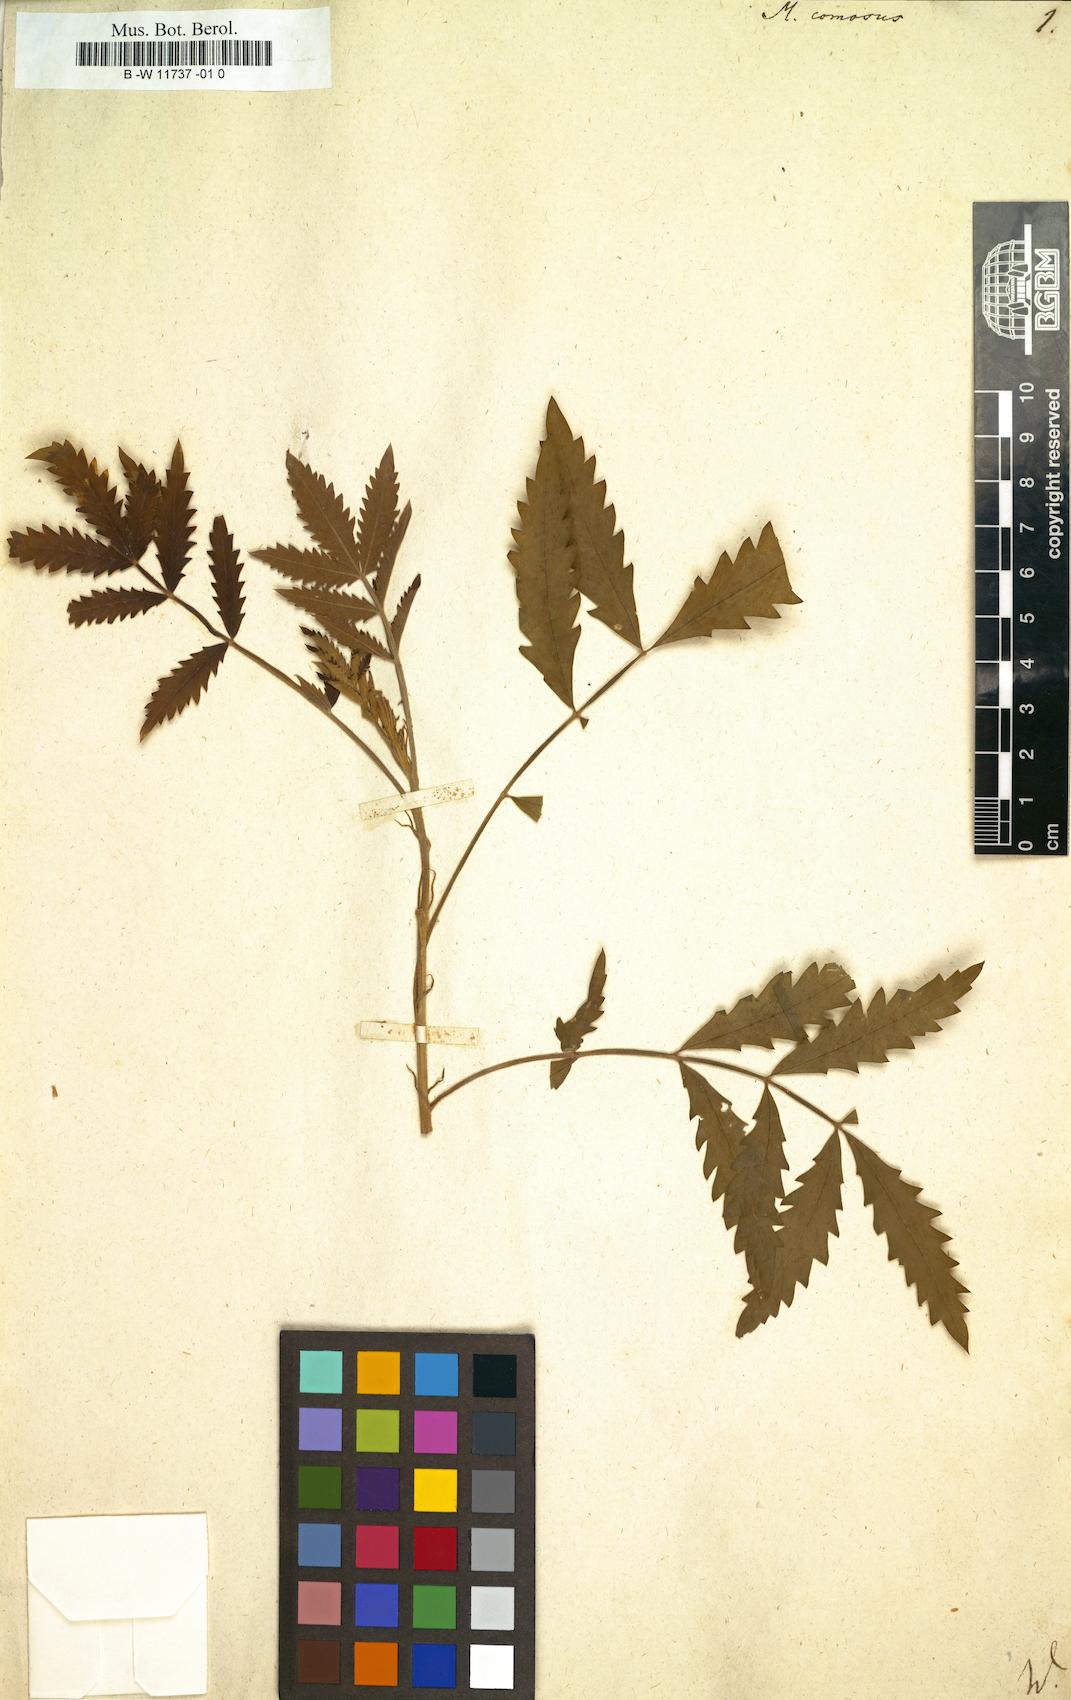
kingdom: Plantae
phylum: Tracheophyta
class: Magnoliopsida
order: Geraniales
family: Melianthaceae
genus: Melianthus
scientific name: Melianthus comosus
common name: Touch-me-not
